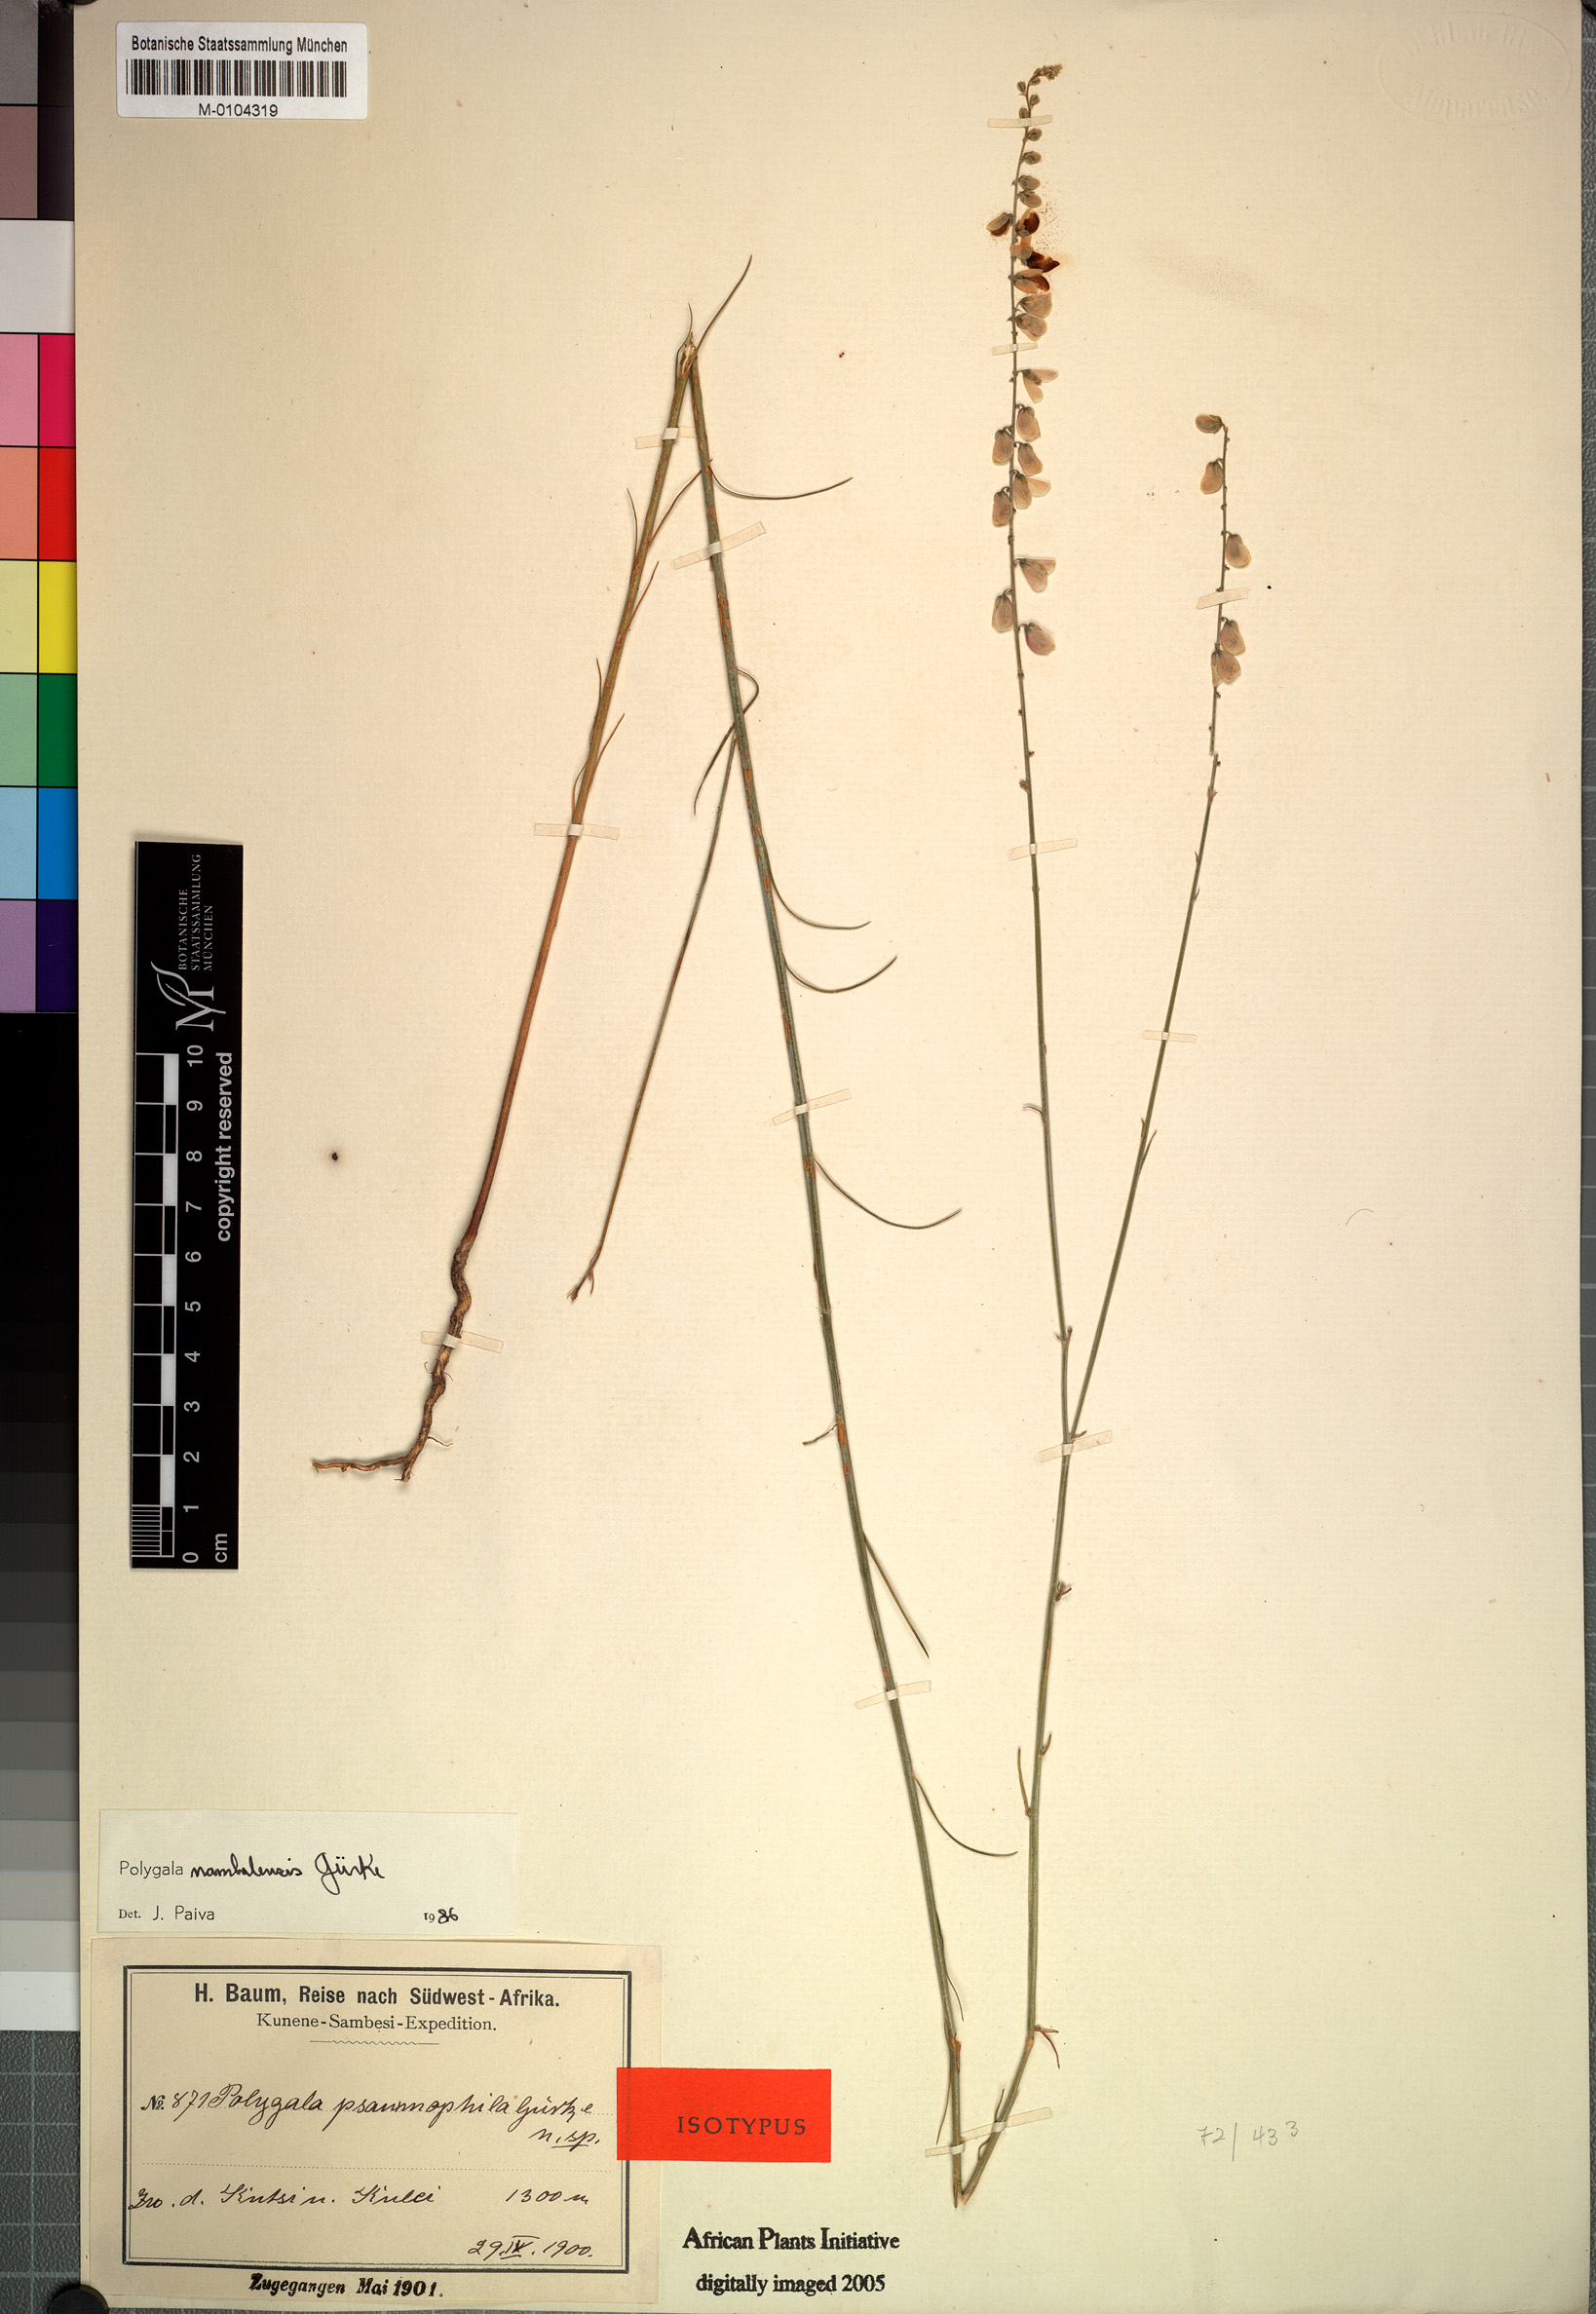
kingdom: Plantae
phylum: Tracheophyta
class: Magnoliopsida
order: Fabales
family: Polygalaceae
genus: Polygala
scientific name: Polygala nambalensis
